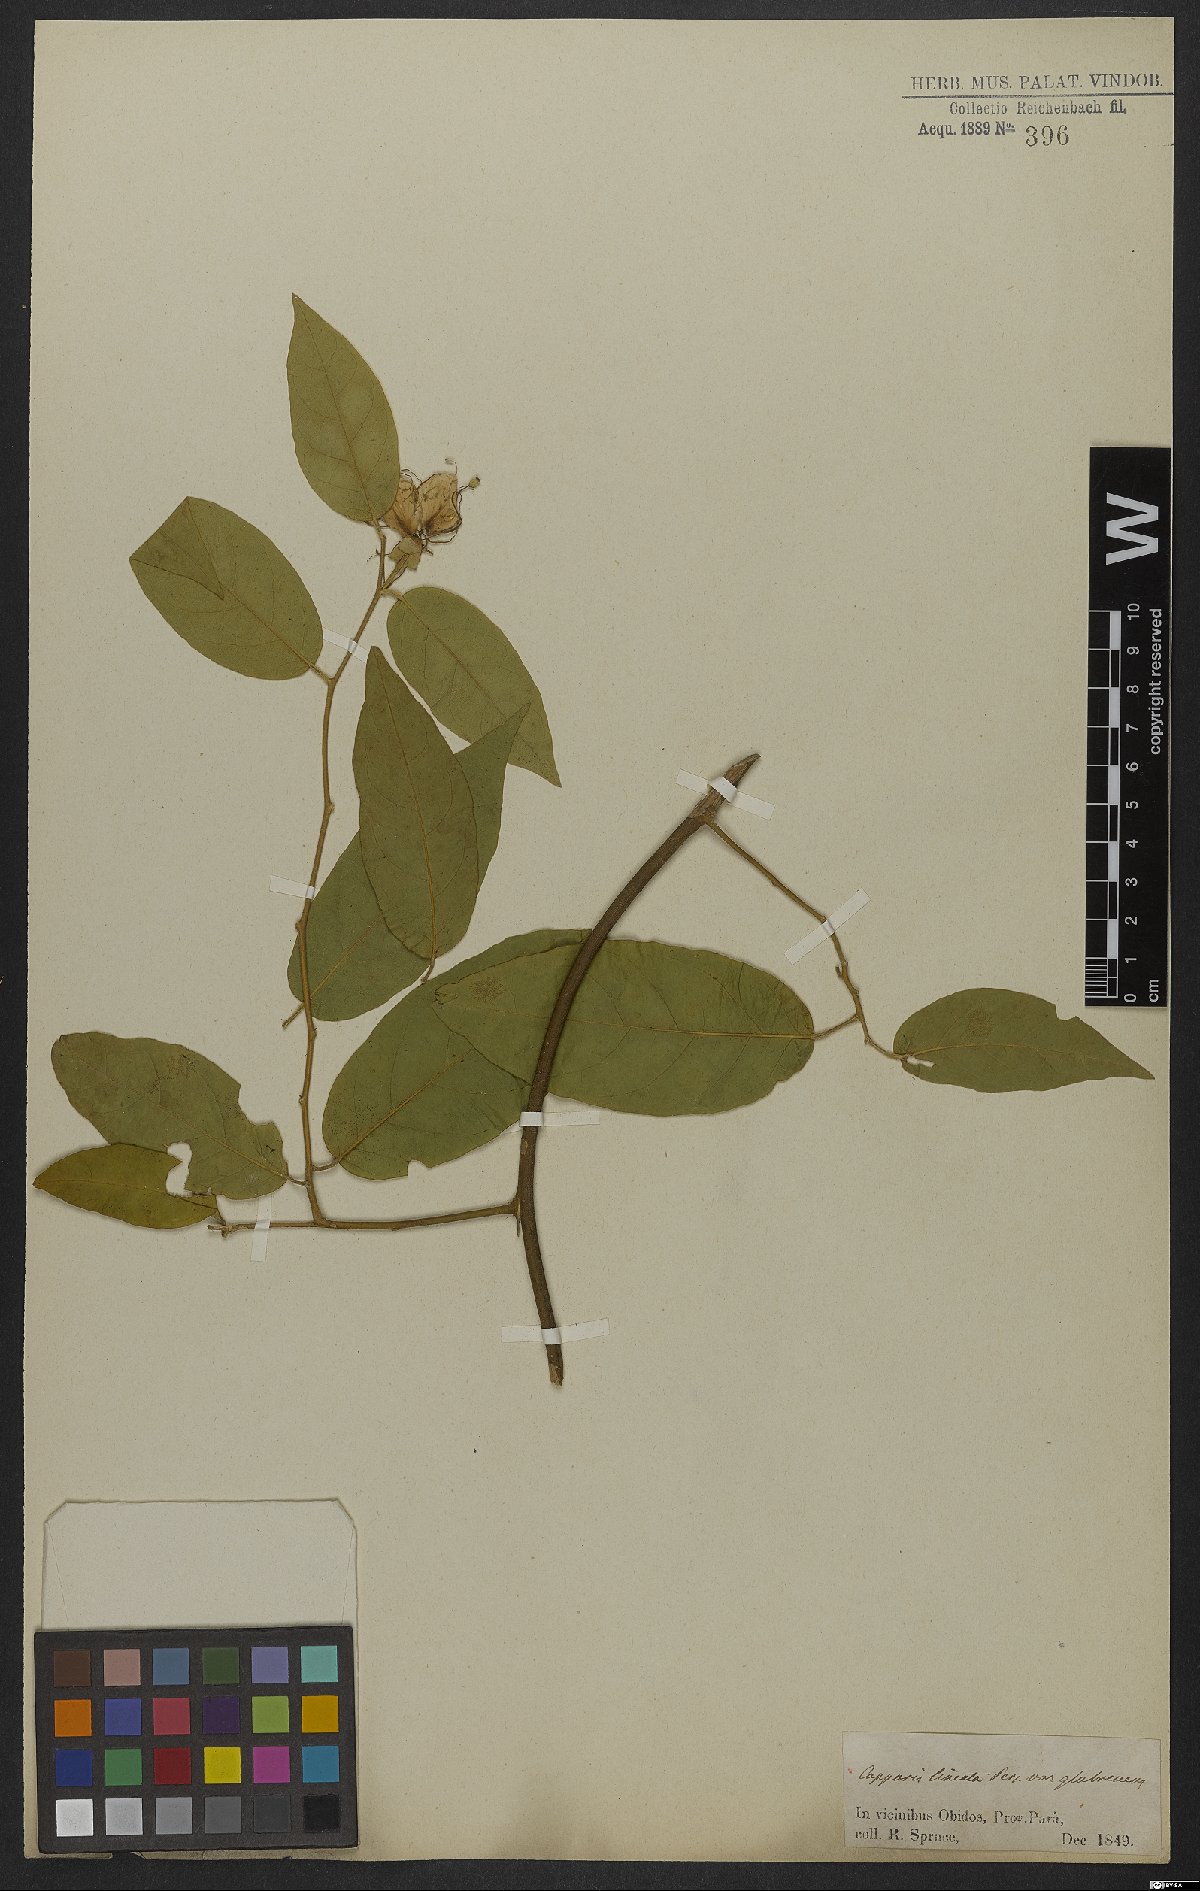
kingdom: Plantae
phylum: Tracheophyta
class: Magnoliopsida
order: Brassicales
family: Capparaceae
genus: Mesocapparis
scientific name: Mesocapparis lineata
